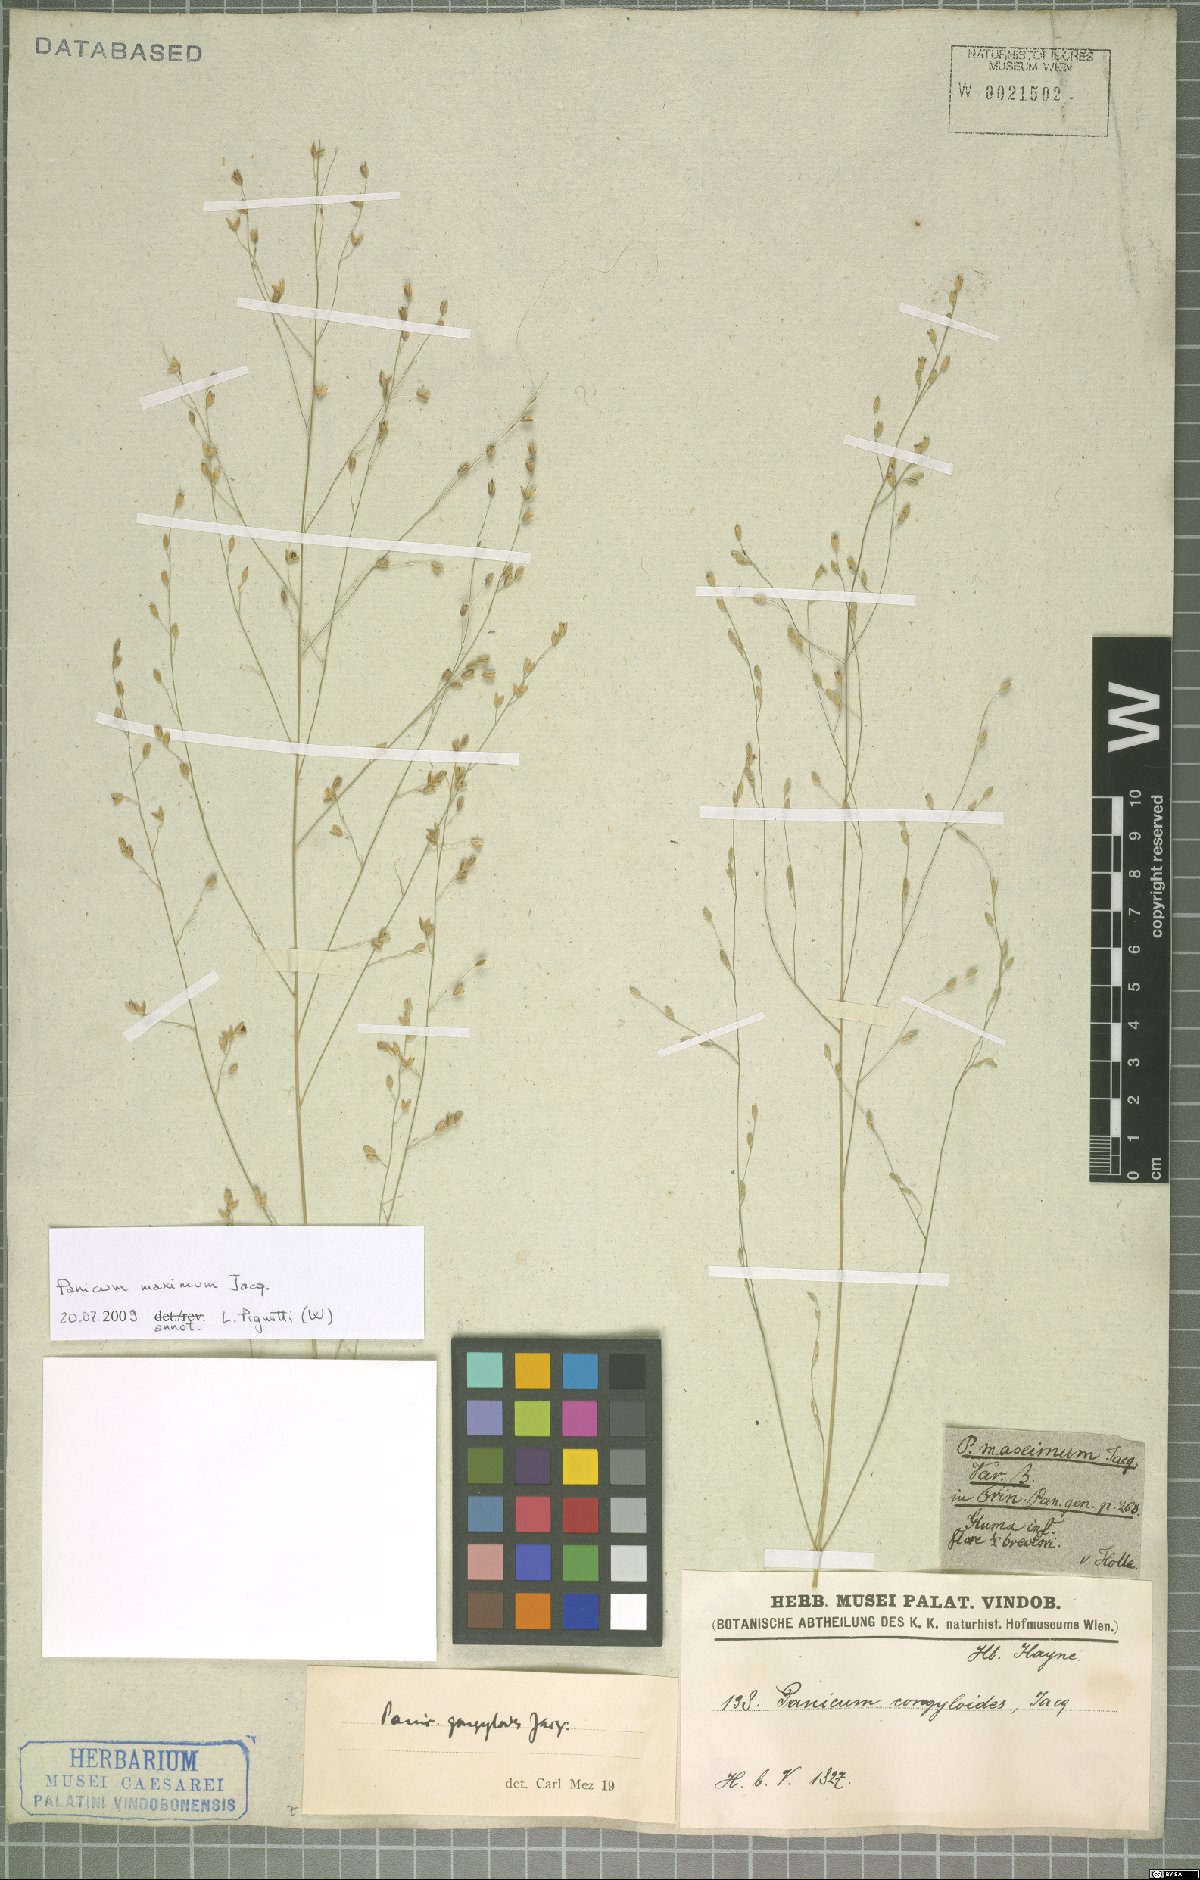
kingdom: Plantae
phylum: Tracheophyta
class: Liliopsida
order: Poales
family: Poaceae
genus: Megathyrsus
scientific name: Megathyrsus maximus
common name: Guineagrass
